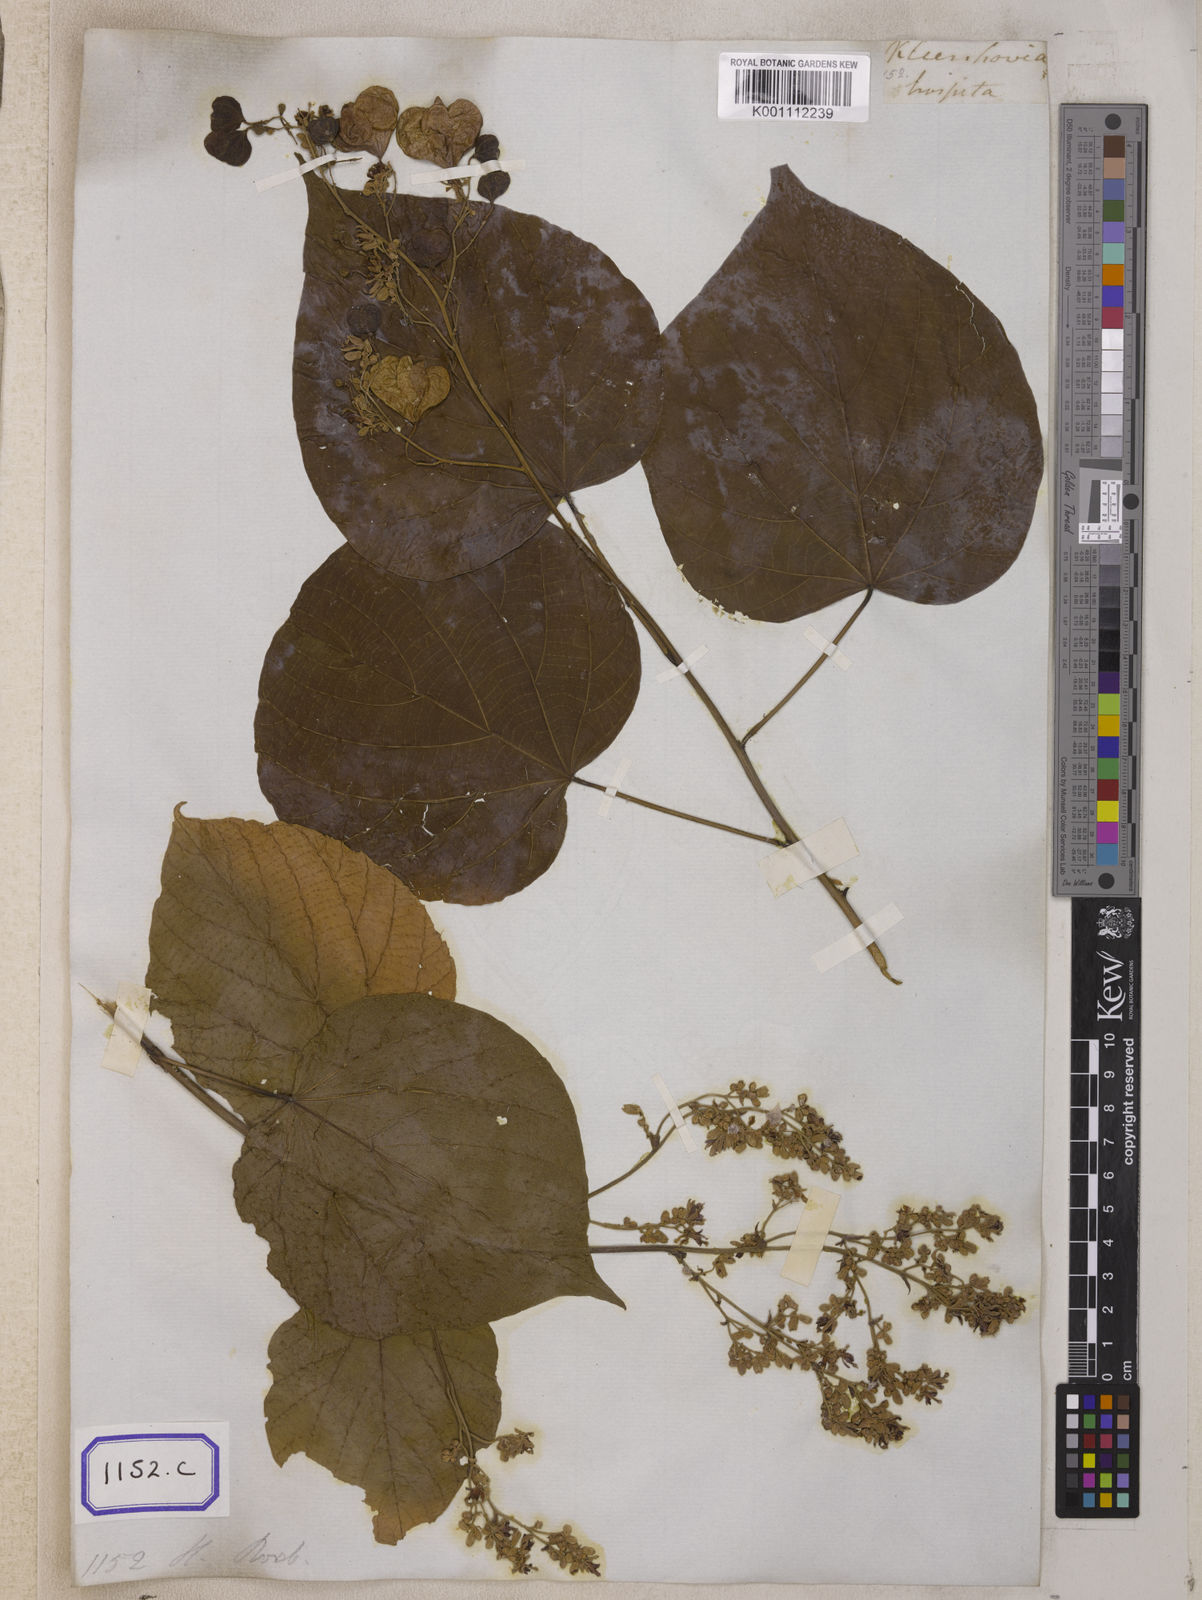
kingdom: Plantae
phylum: Tracheophyta
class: Magnoliopsida
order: Malvales
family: Malvaceae
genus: Kleinhovia
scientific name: Kleinhovia hospita
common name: Guest-tree
